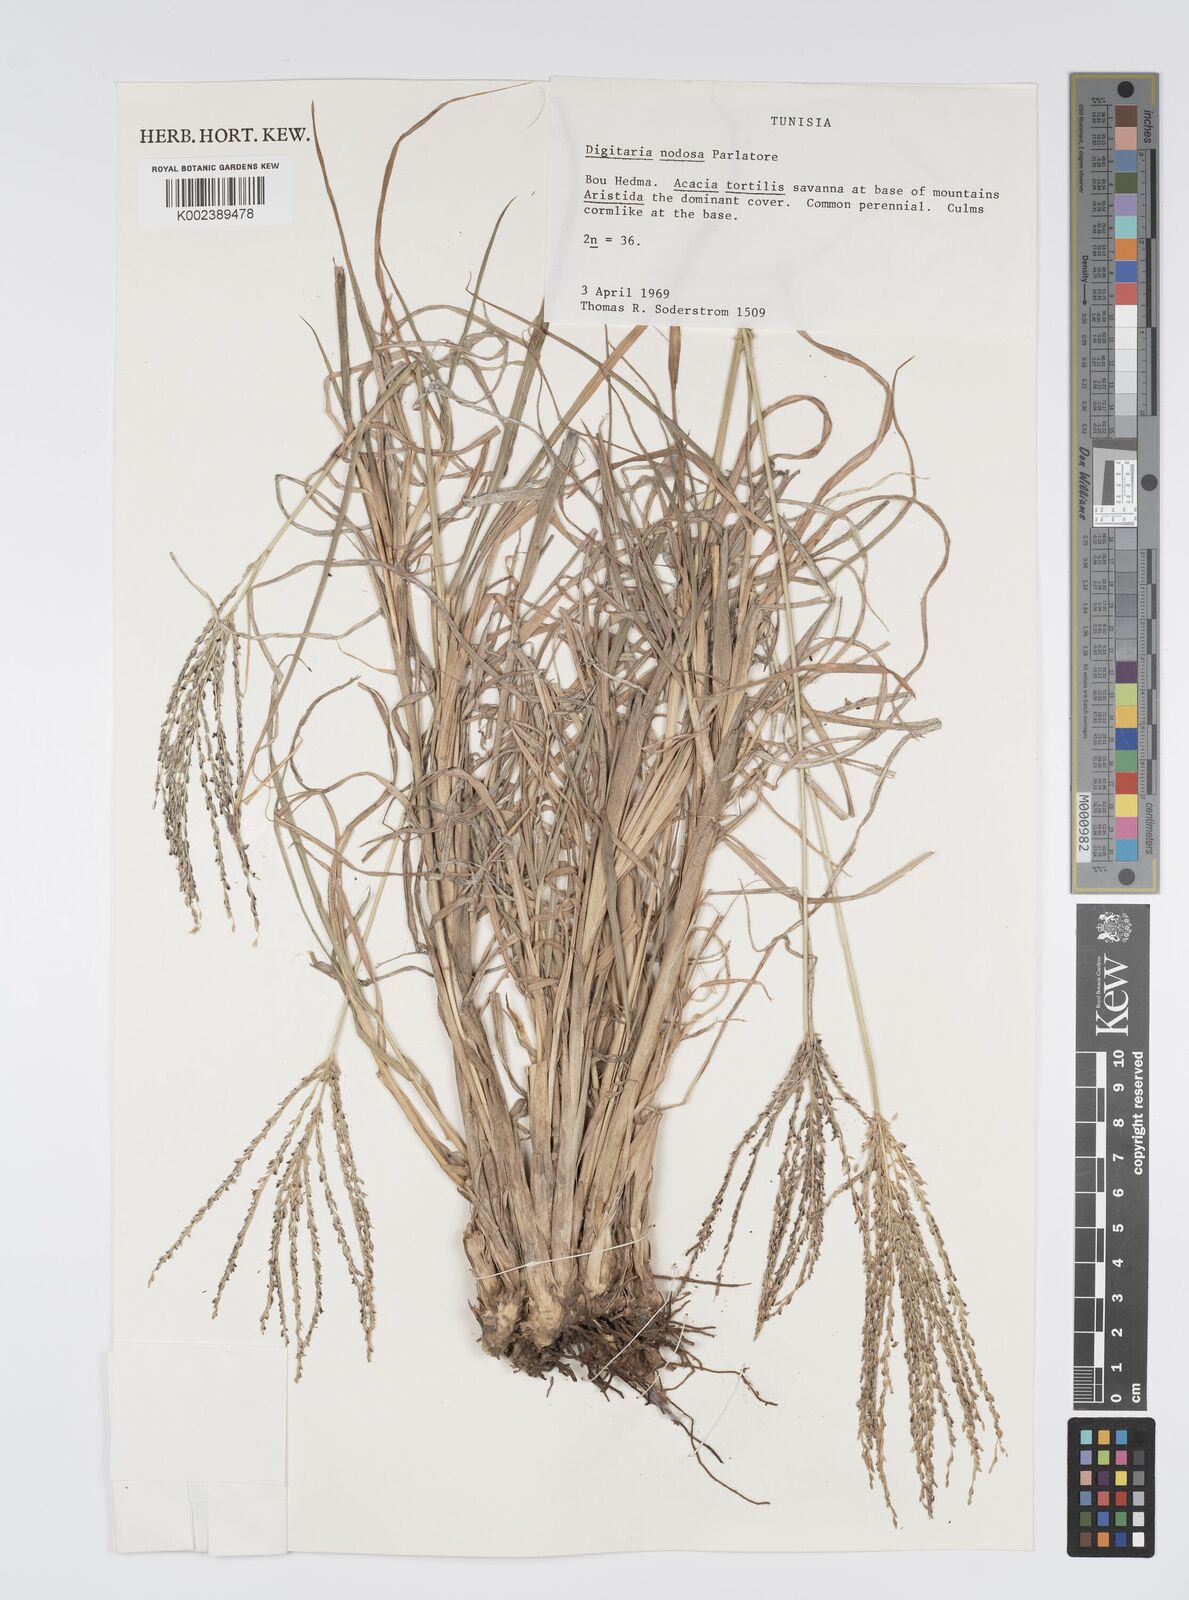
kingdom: Plantae
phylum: Tracheophyta
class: Liliopsida
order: Poales
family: Poaceae
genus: Digitaria
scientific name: Digitaria nodosa
